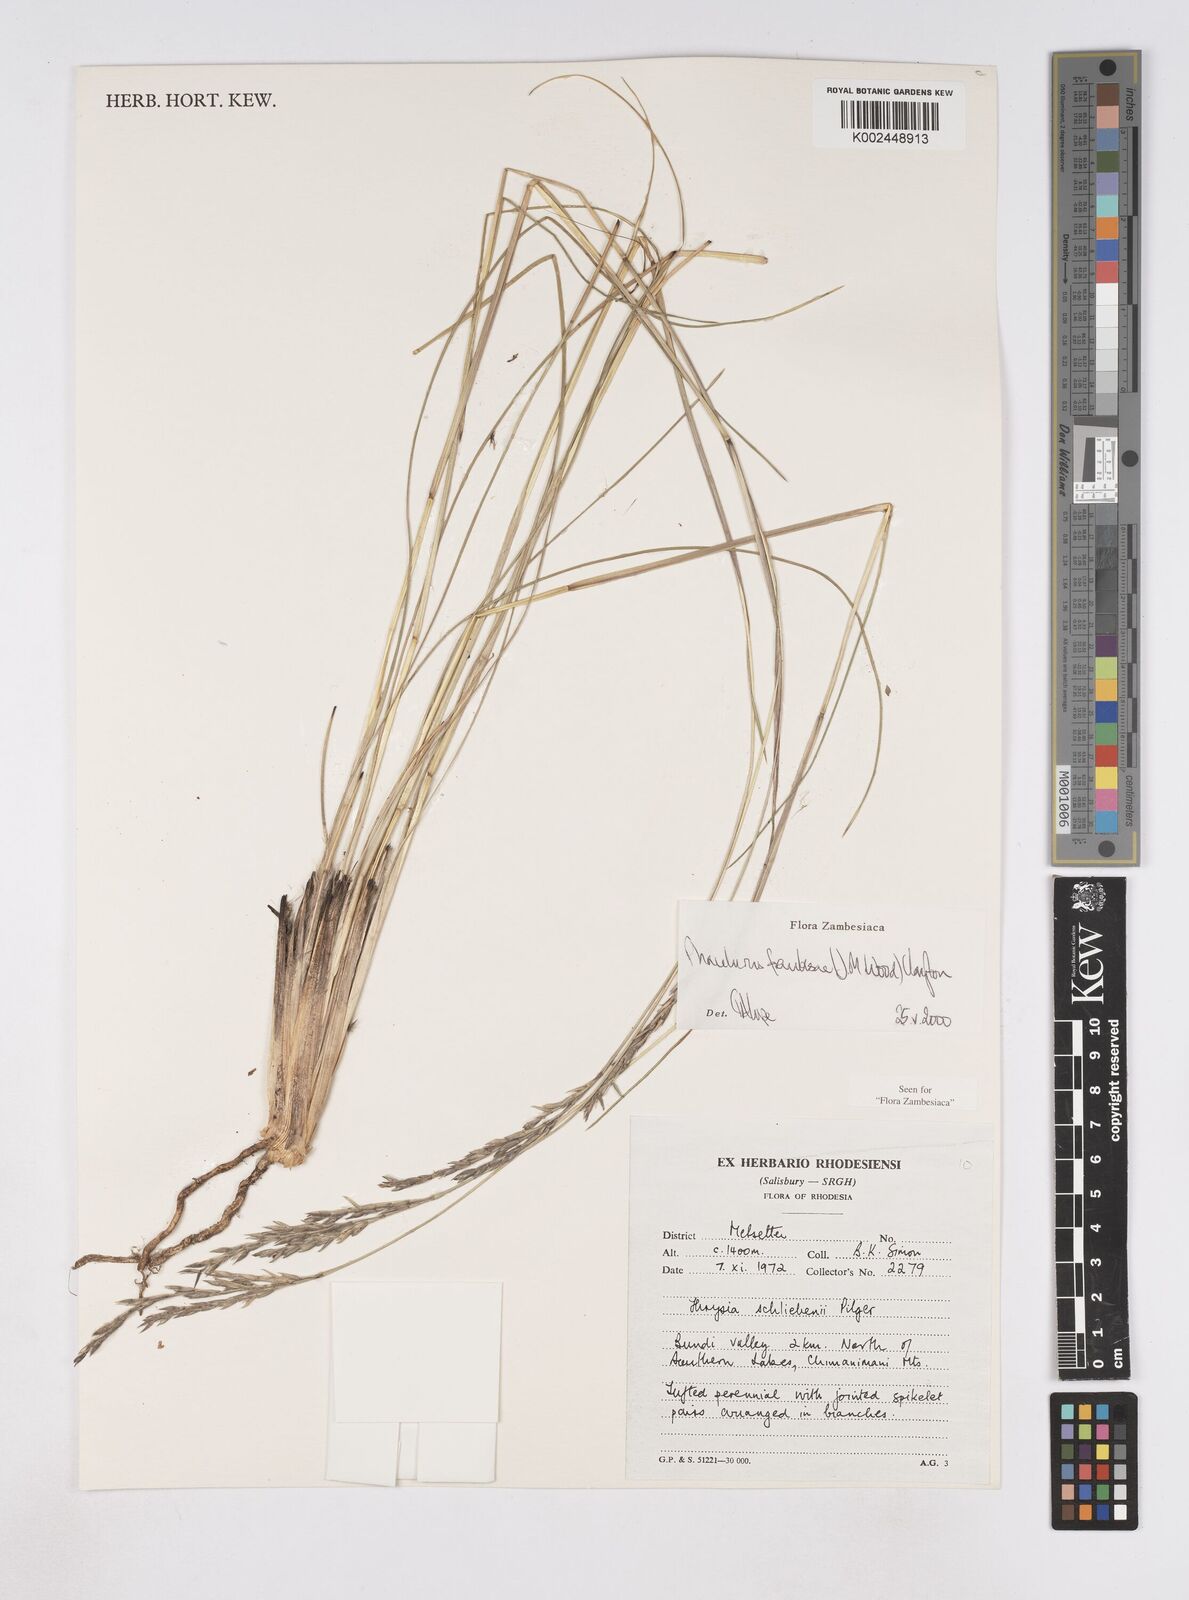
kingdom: Plantae
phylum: Tracheophyta
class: Liliopsida
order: Poales
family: Poaceae
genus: Phacelurus
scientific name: Phacelurus franksiae
